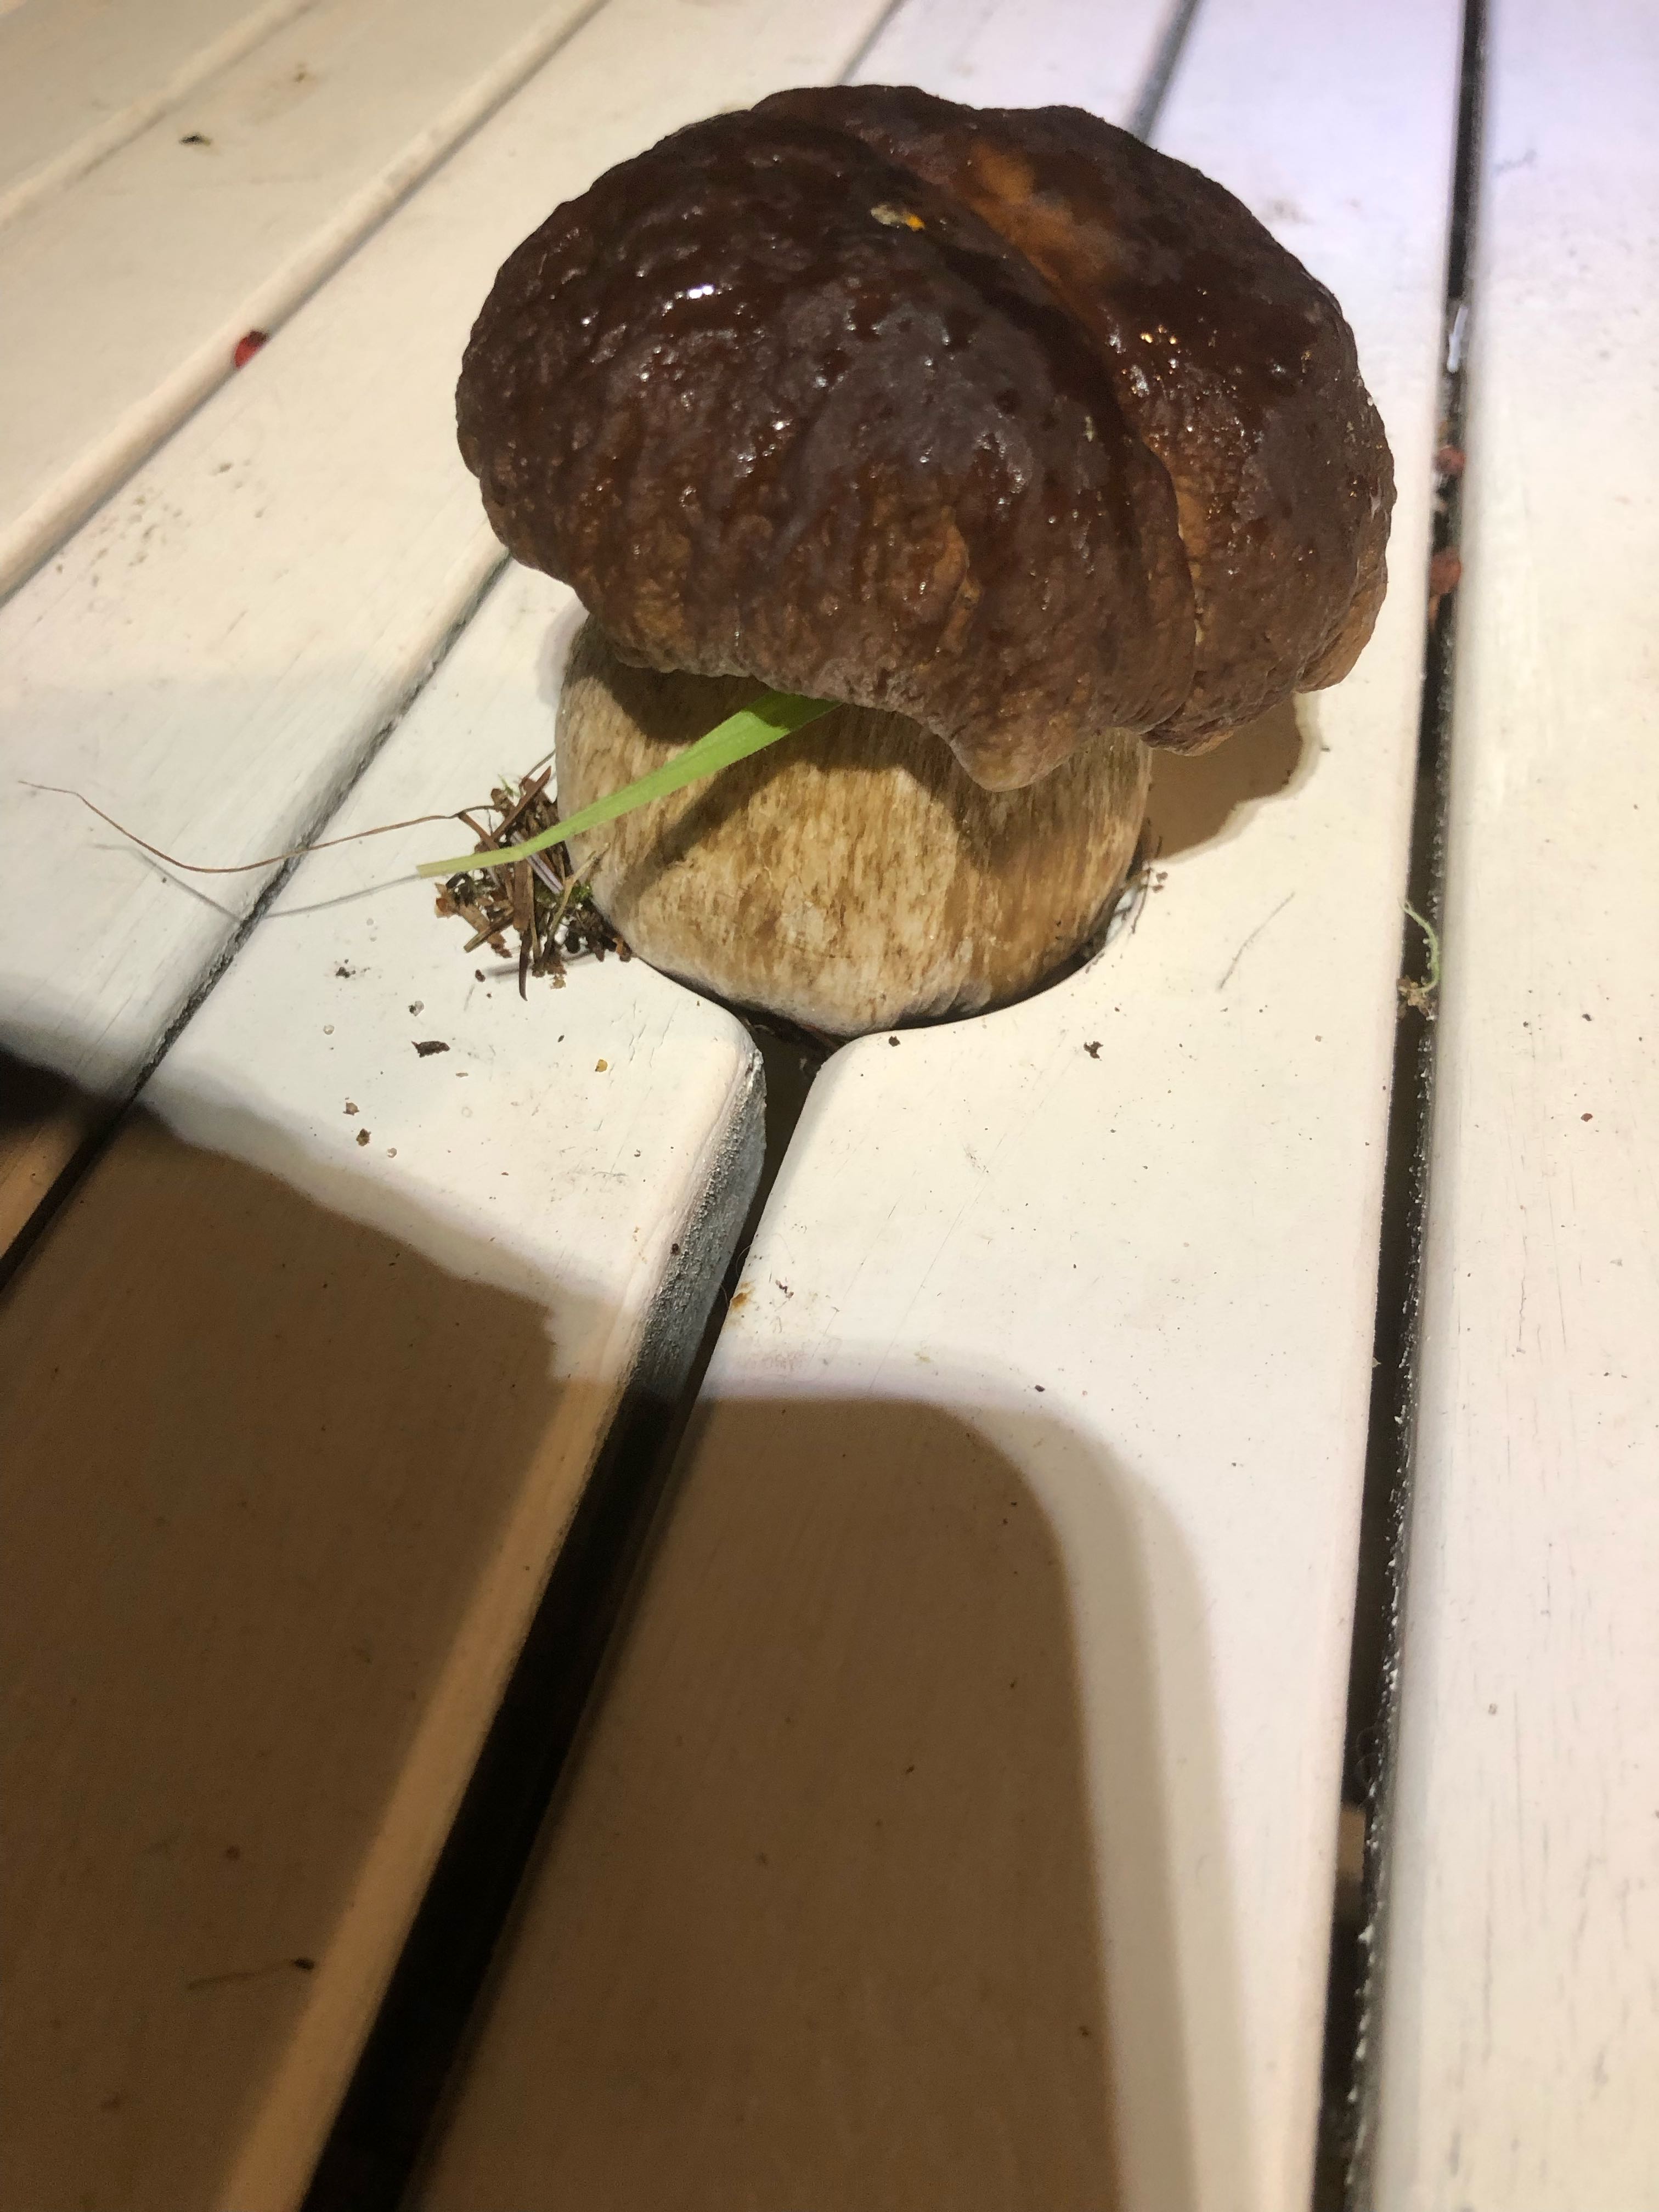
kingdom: Fungi
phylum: Basidiomycota
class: Agaricomycetes
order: Boletales
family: Boletaceae
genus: Boletus
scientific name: Boletus
